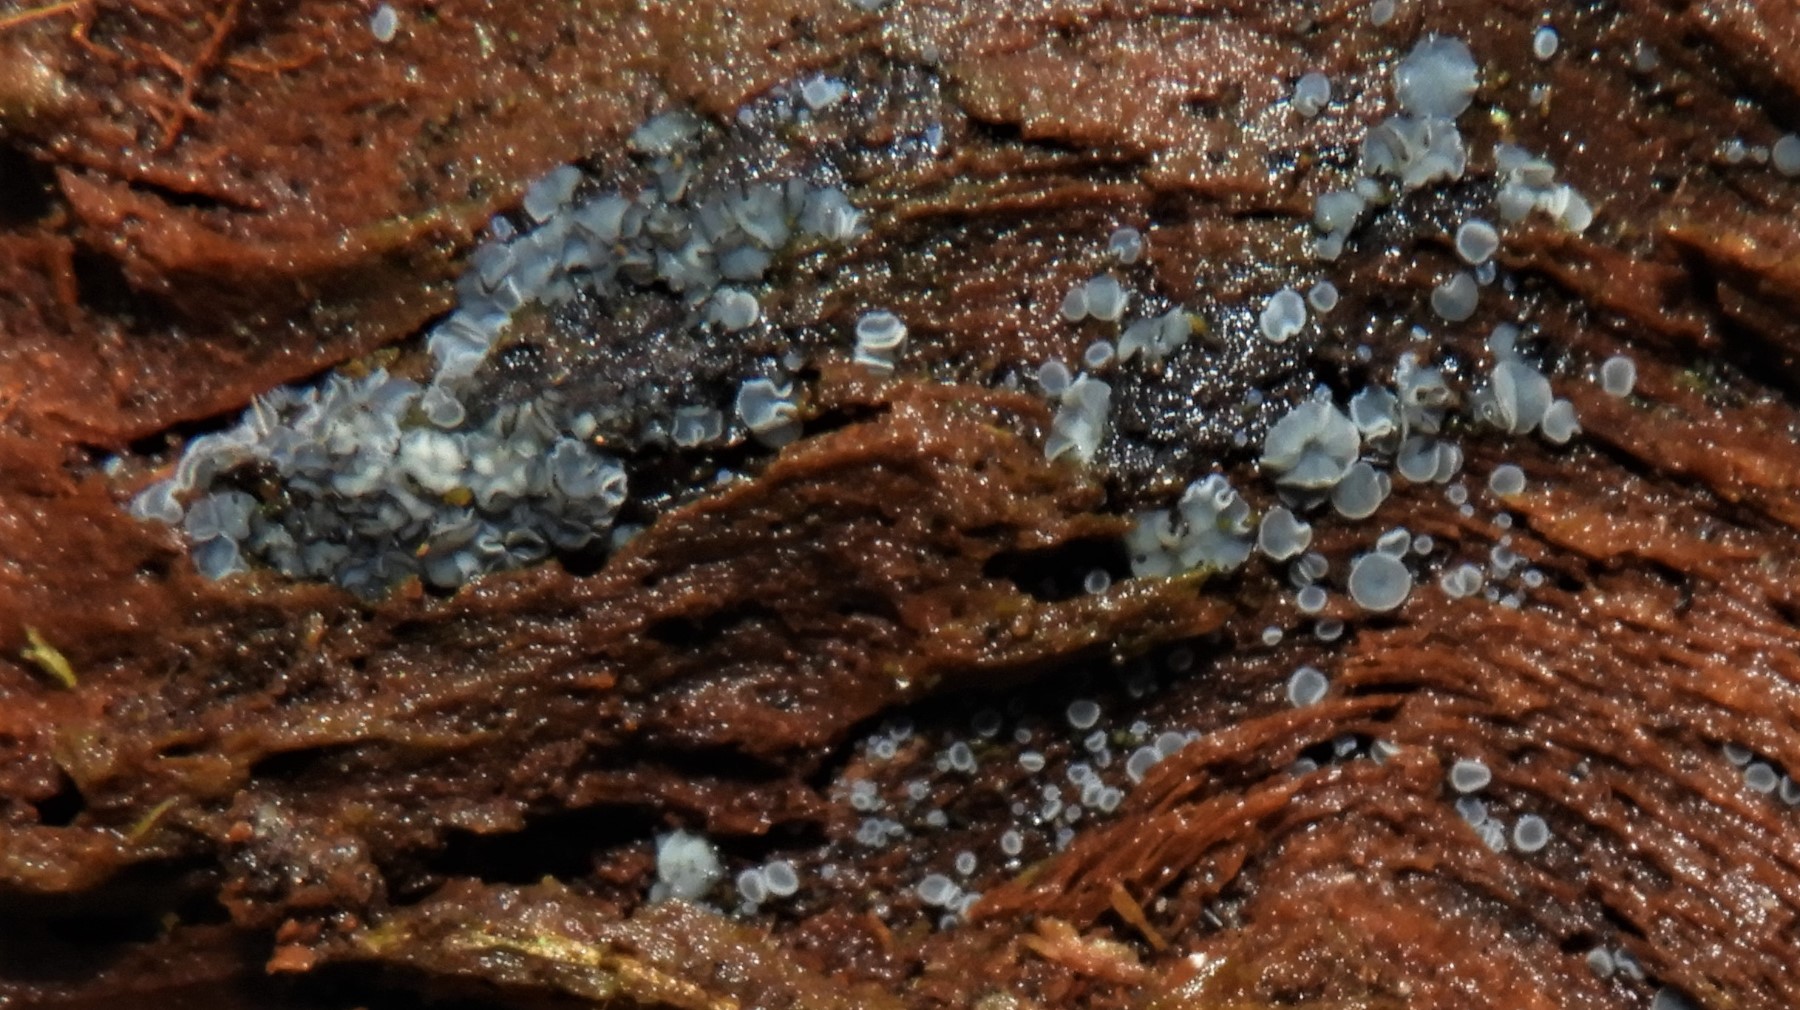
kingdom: Fungi
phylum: Ascomycota
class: Leotiomycetes
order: Helotiales
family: Mollisiaceae
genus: Mollisia
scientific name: Mollisia
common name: gråskive
